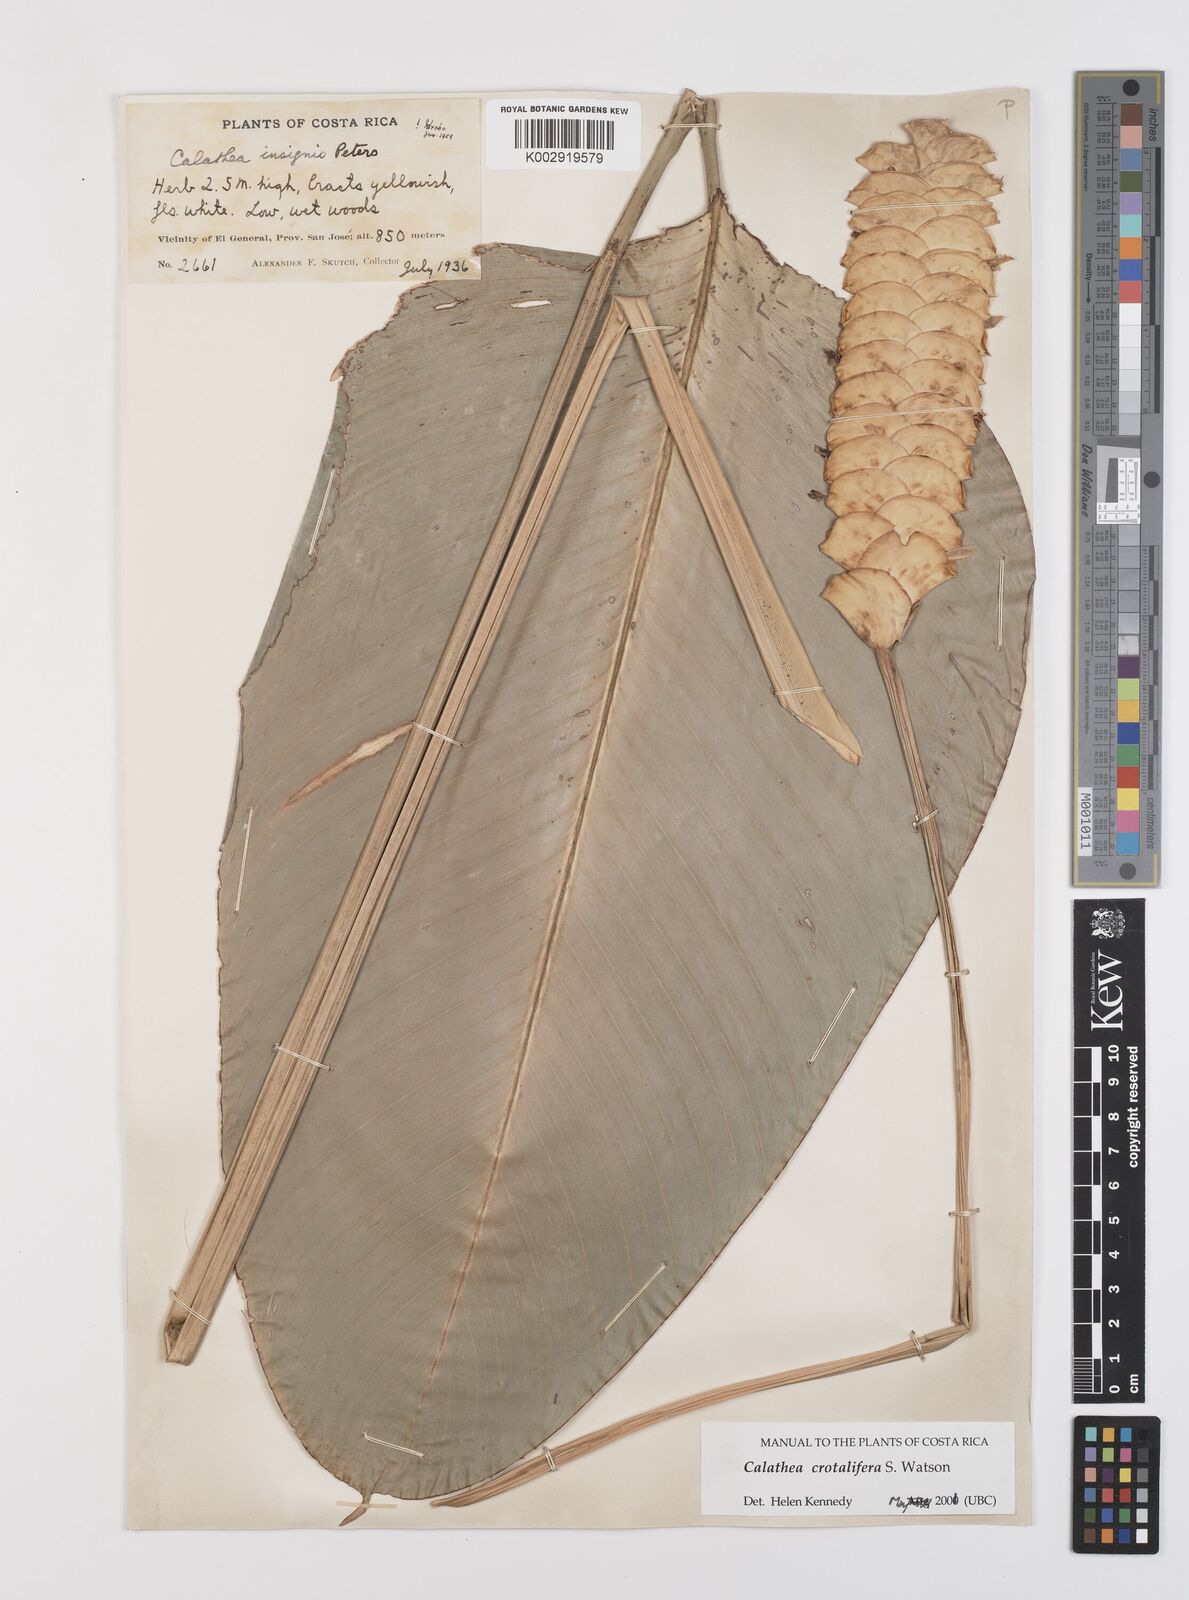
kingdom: Plantae
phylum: Tracheophyta
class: Liliopsida
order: Zingiberales
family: Marantaceae
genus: Calathea
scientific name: Calathea crotalifera
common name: Rattlesnake plant
